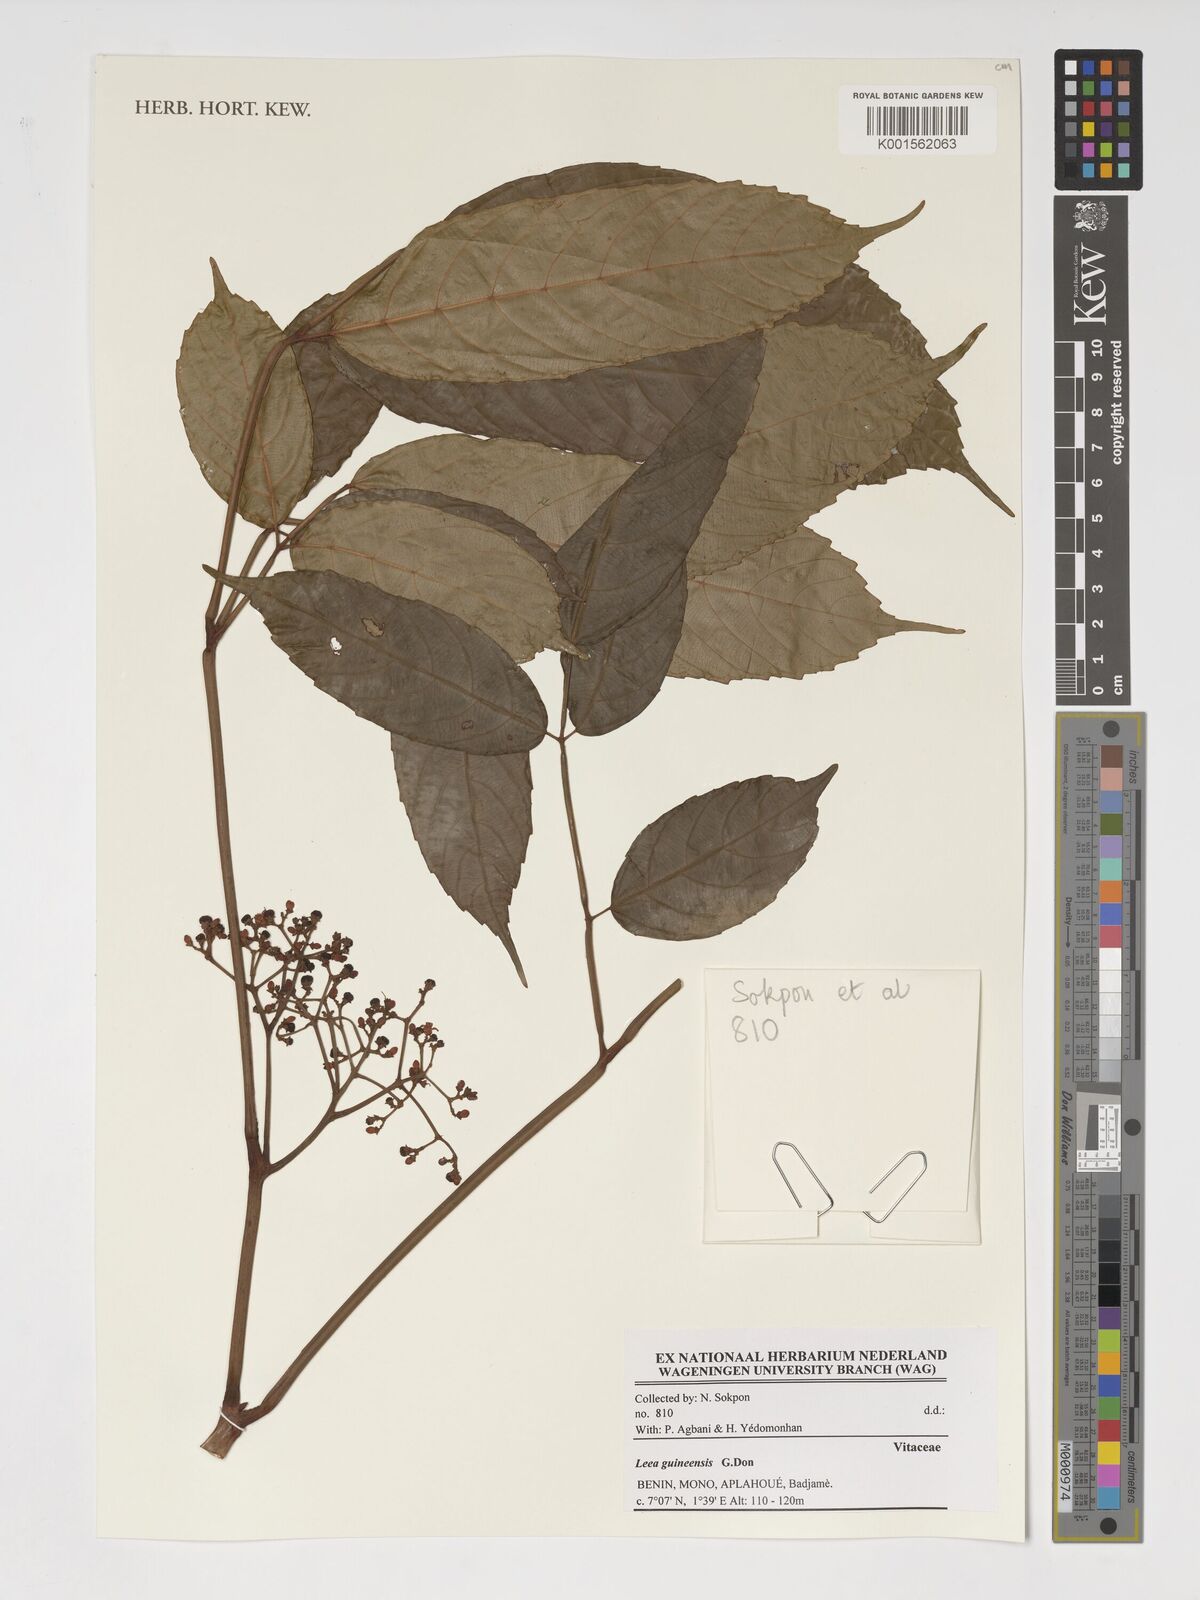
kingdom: Plantae
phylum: Tracheophyta
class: Magnoliopsida
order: Vitales
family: Vitaceae
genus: Leea
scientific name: Leea guineensis
